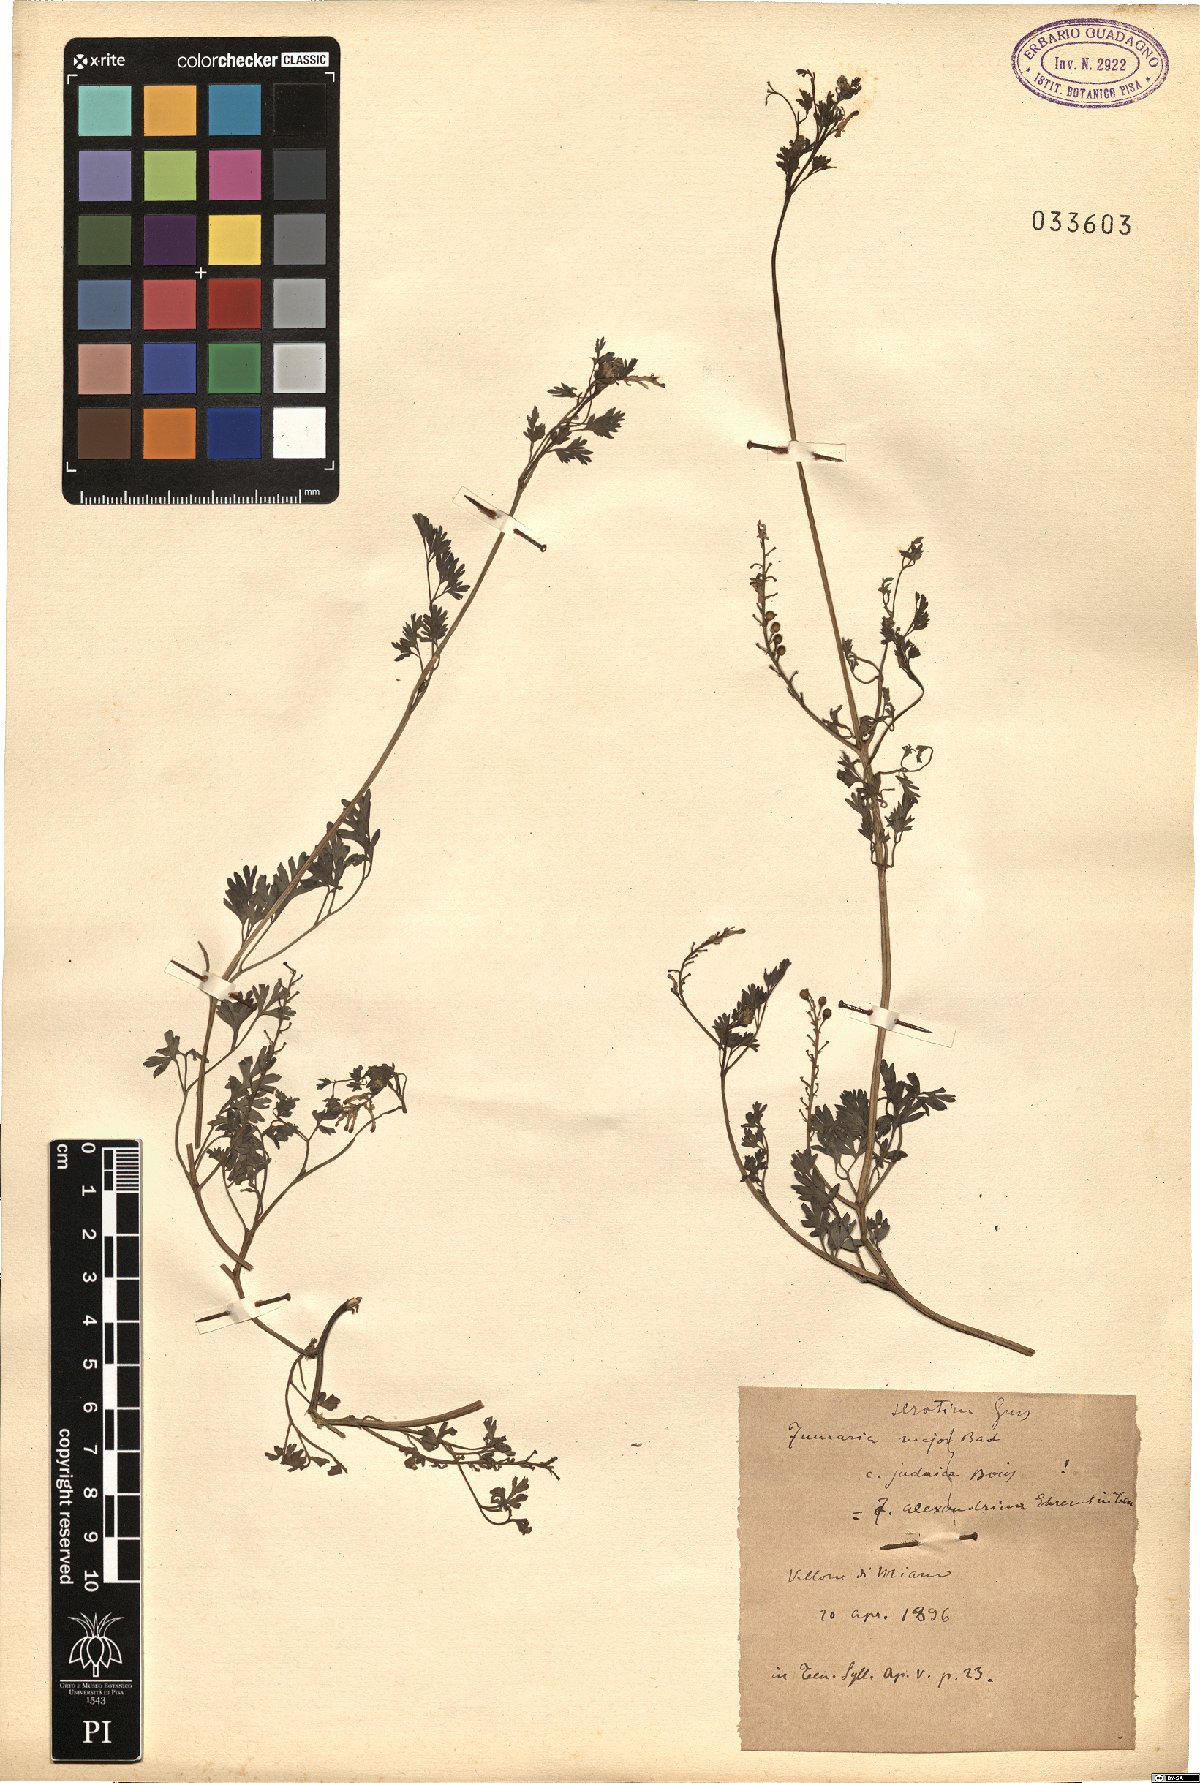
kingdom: Plantae
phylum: Tracheophyta
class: Magnoliopsida
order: Ranunculales
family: Papaveraceae
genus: Fumaria
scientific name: Fumaria bastardii
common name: Tall ramping-fumitory
